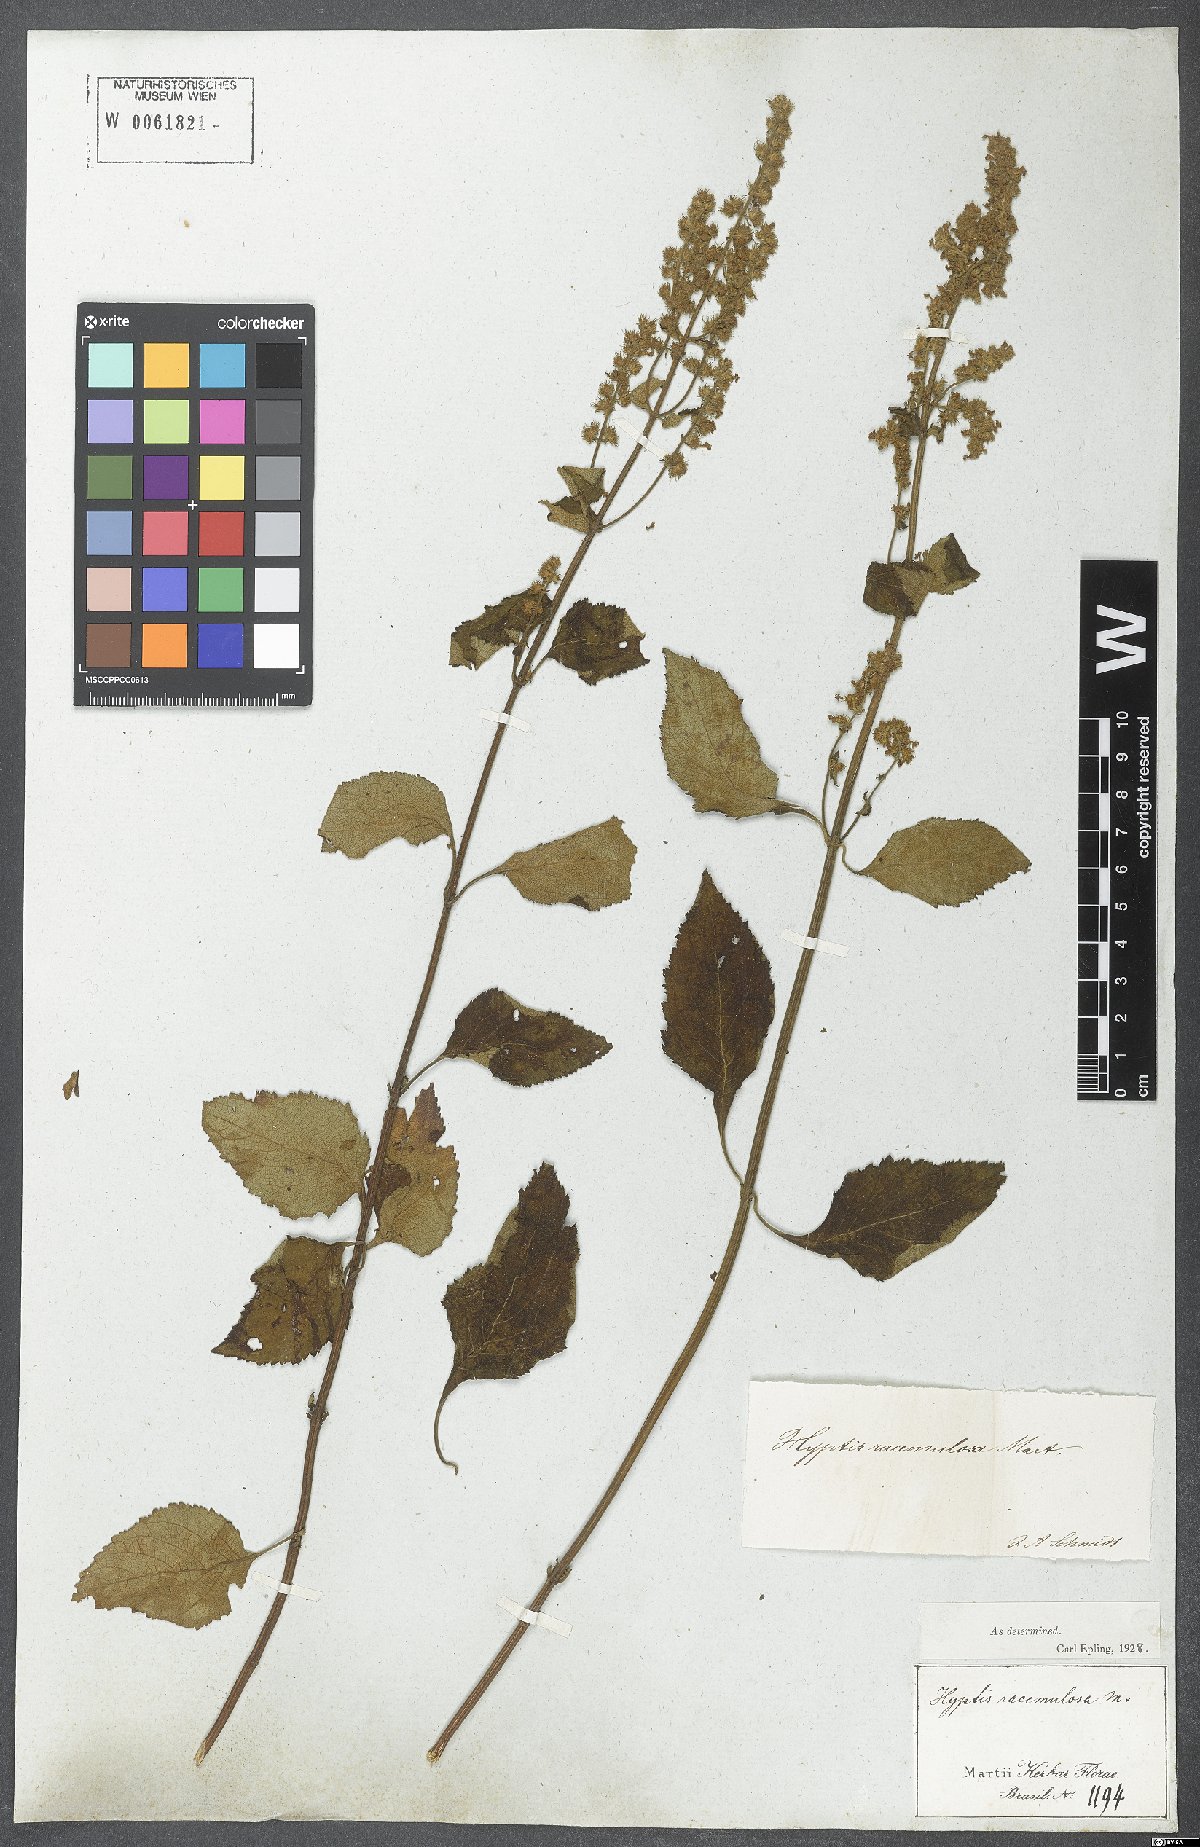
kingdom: Plantae
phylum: Tracheophyta
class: Magnoliopsida
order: Lamiales
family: Lamiaceae
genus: Cantinoa
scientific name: Cantinoa racemulosa
